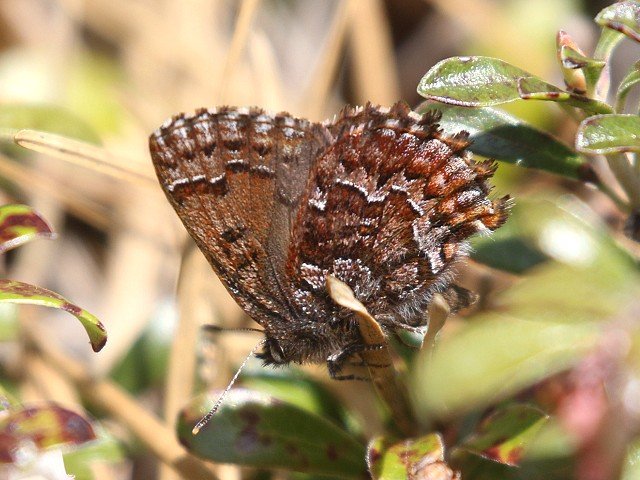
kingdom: Animalia
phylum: Arthropoda
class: Insecta
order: Lepidoptera
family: Lycaenidae
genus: Incisalia
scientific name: Incisalia niphon
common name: Eastern Pine Elfin
